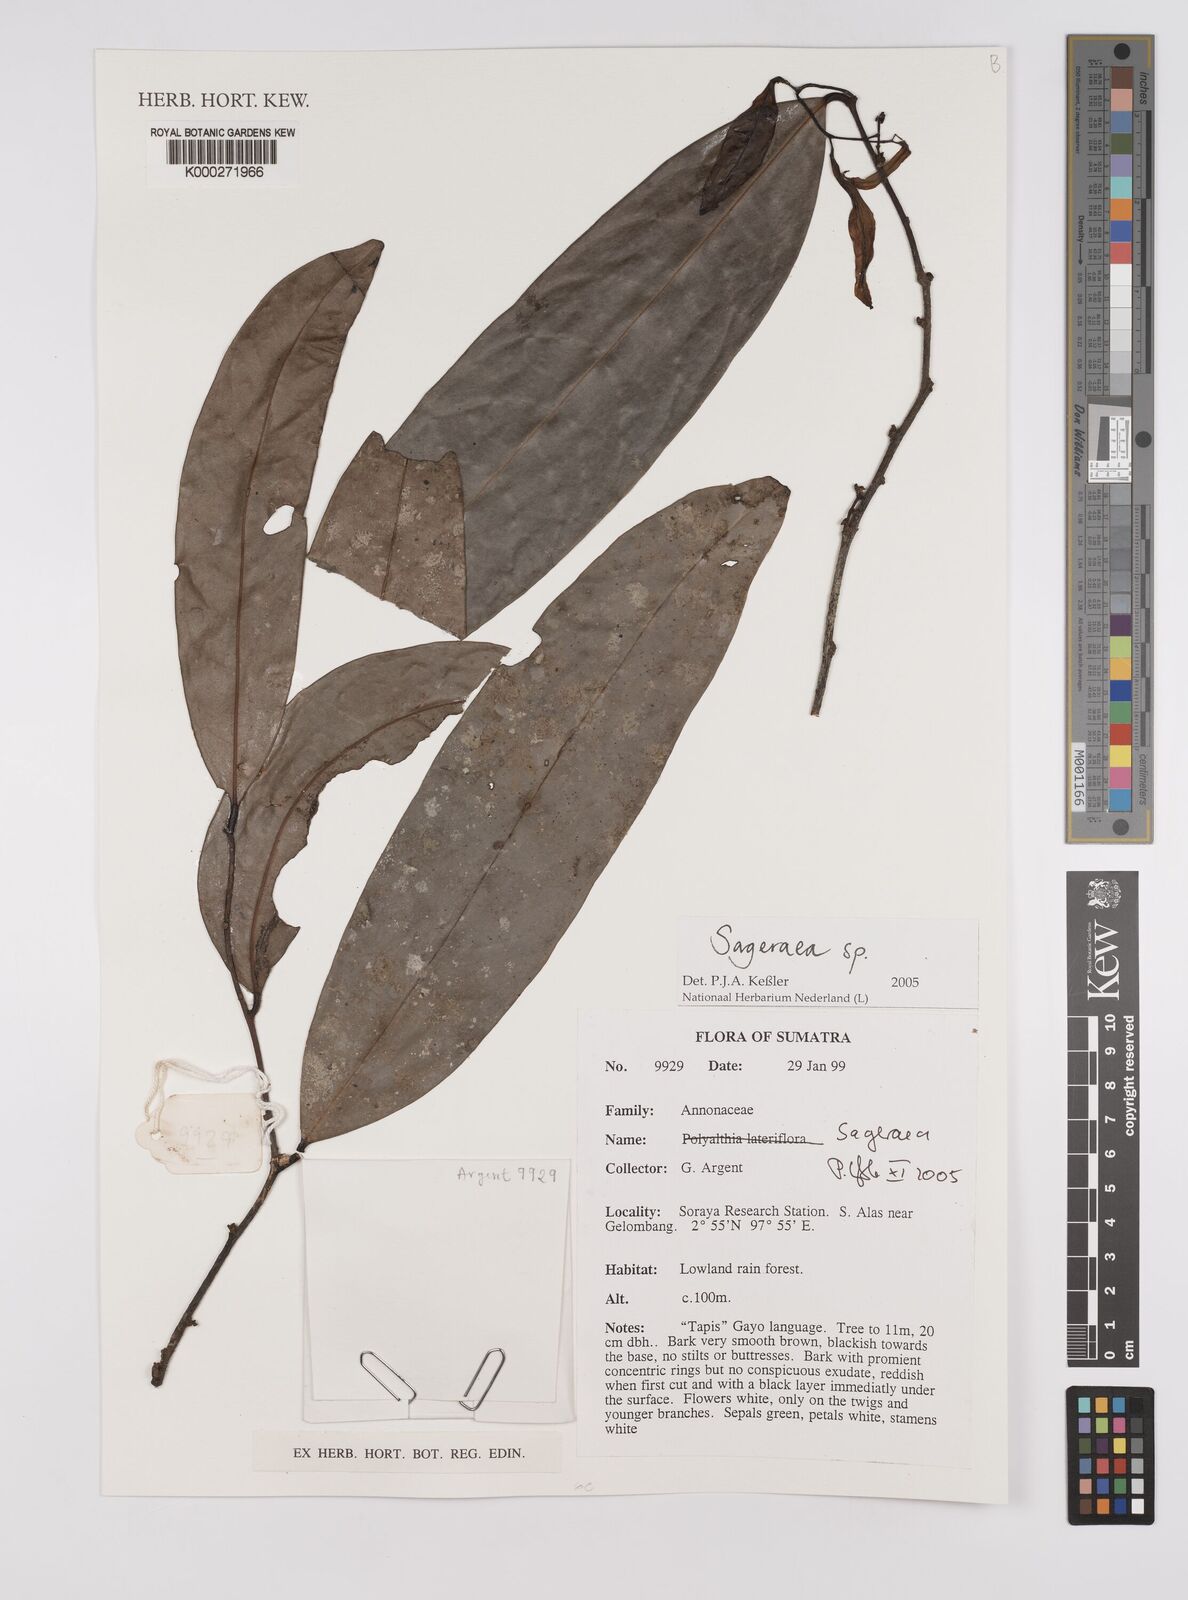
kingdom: Plantae
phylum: Tracheophyta
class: Magnoliopsida
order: Magnoliales
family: Annonaceae
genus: Sageraea
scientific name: Sageraea
